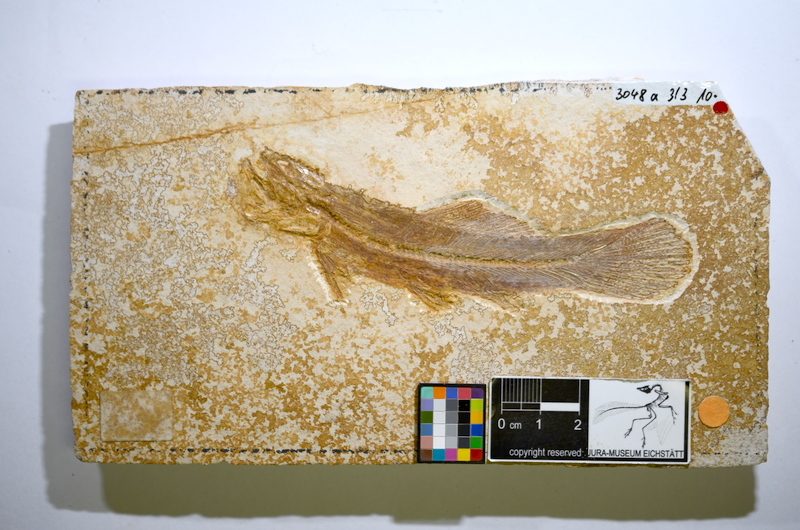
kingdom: Animalia
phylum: Chordata
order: Amiiformes
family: Amiidae
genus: Solnhofenamia
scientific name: Solnhofenamia elongata
